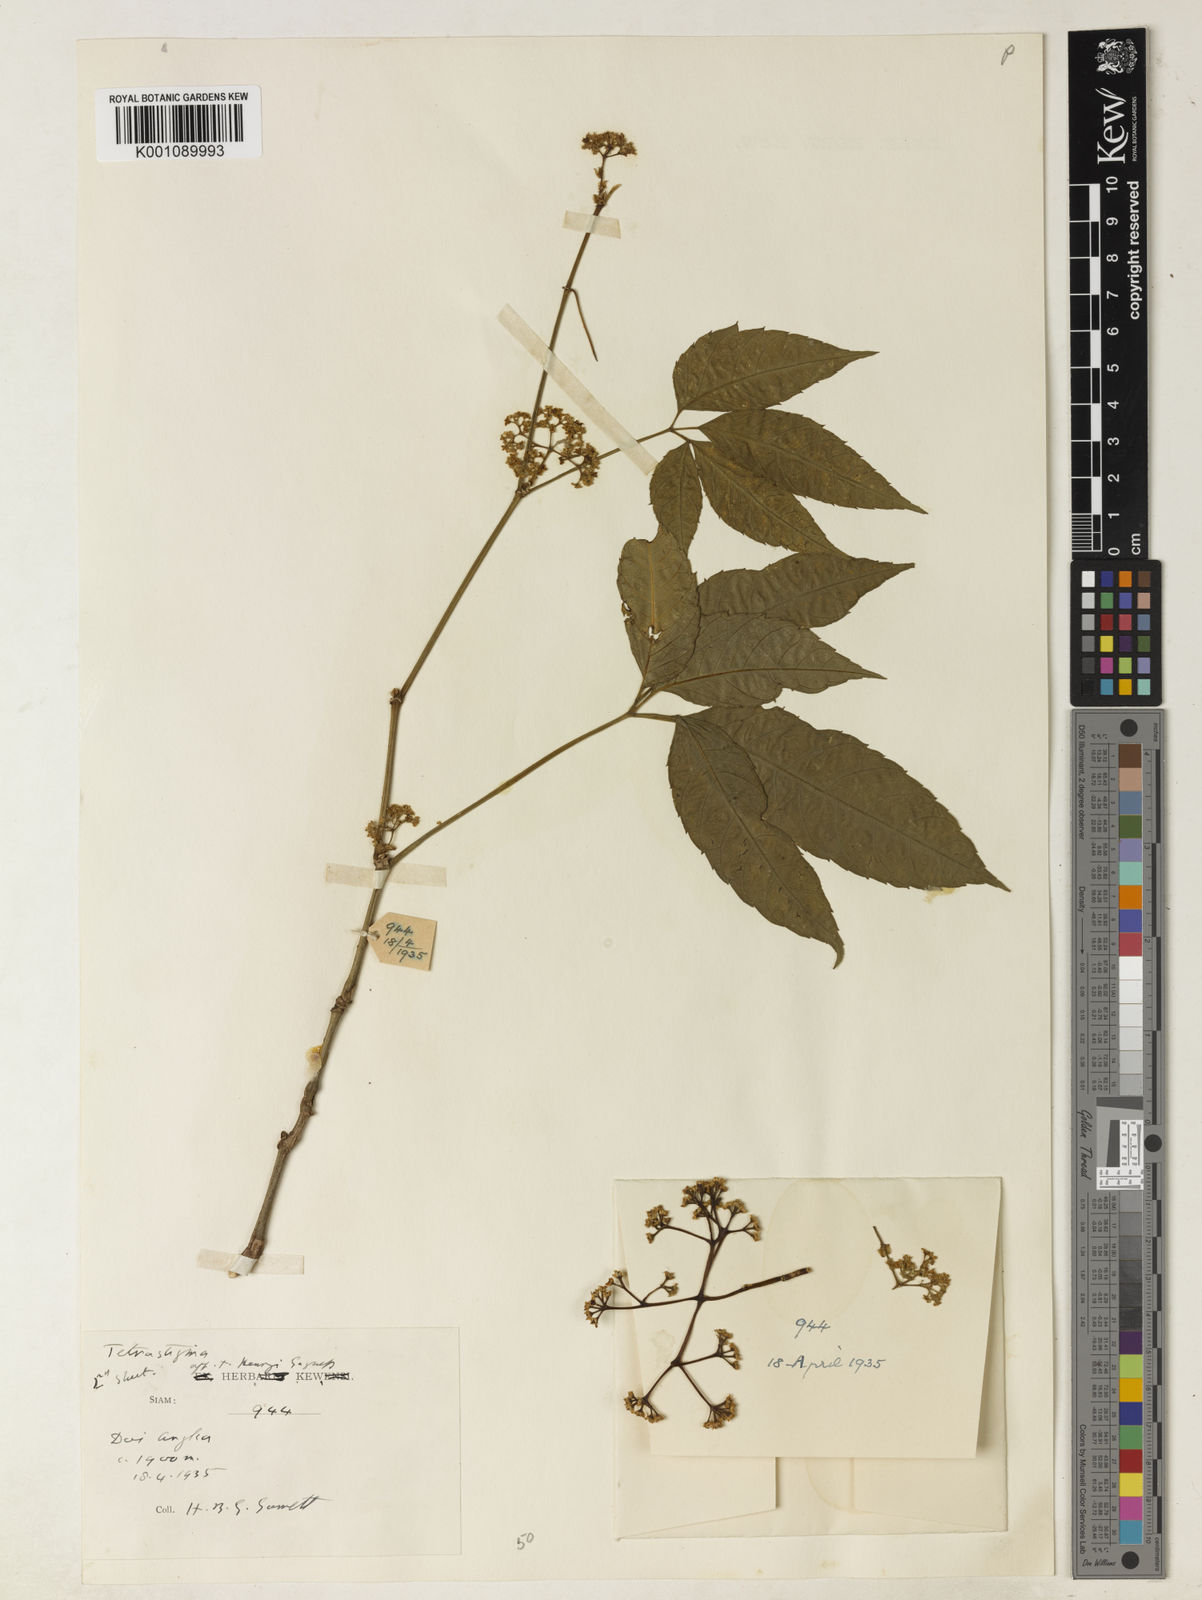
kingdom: Plantae
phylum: Tracheophyta
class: Magnoliopsida
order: Vitales
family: Vitaceae
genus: Tetrastigma
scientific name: Tetrastigma dubium
